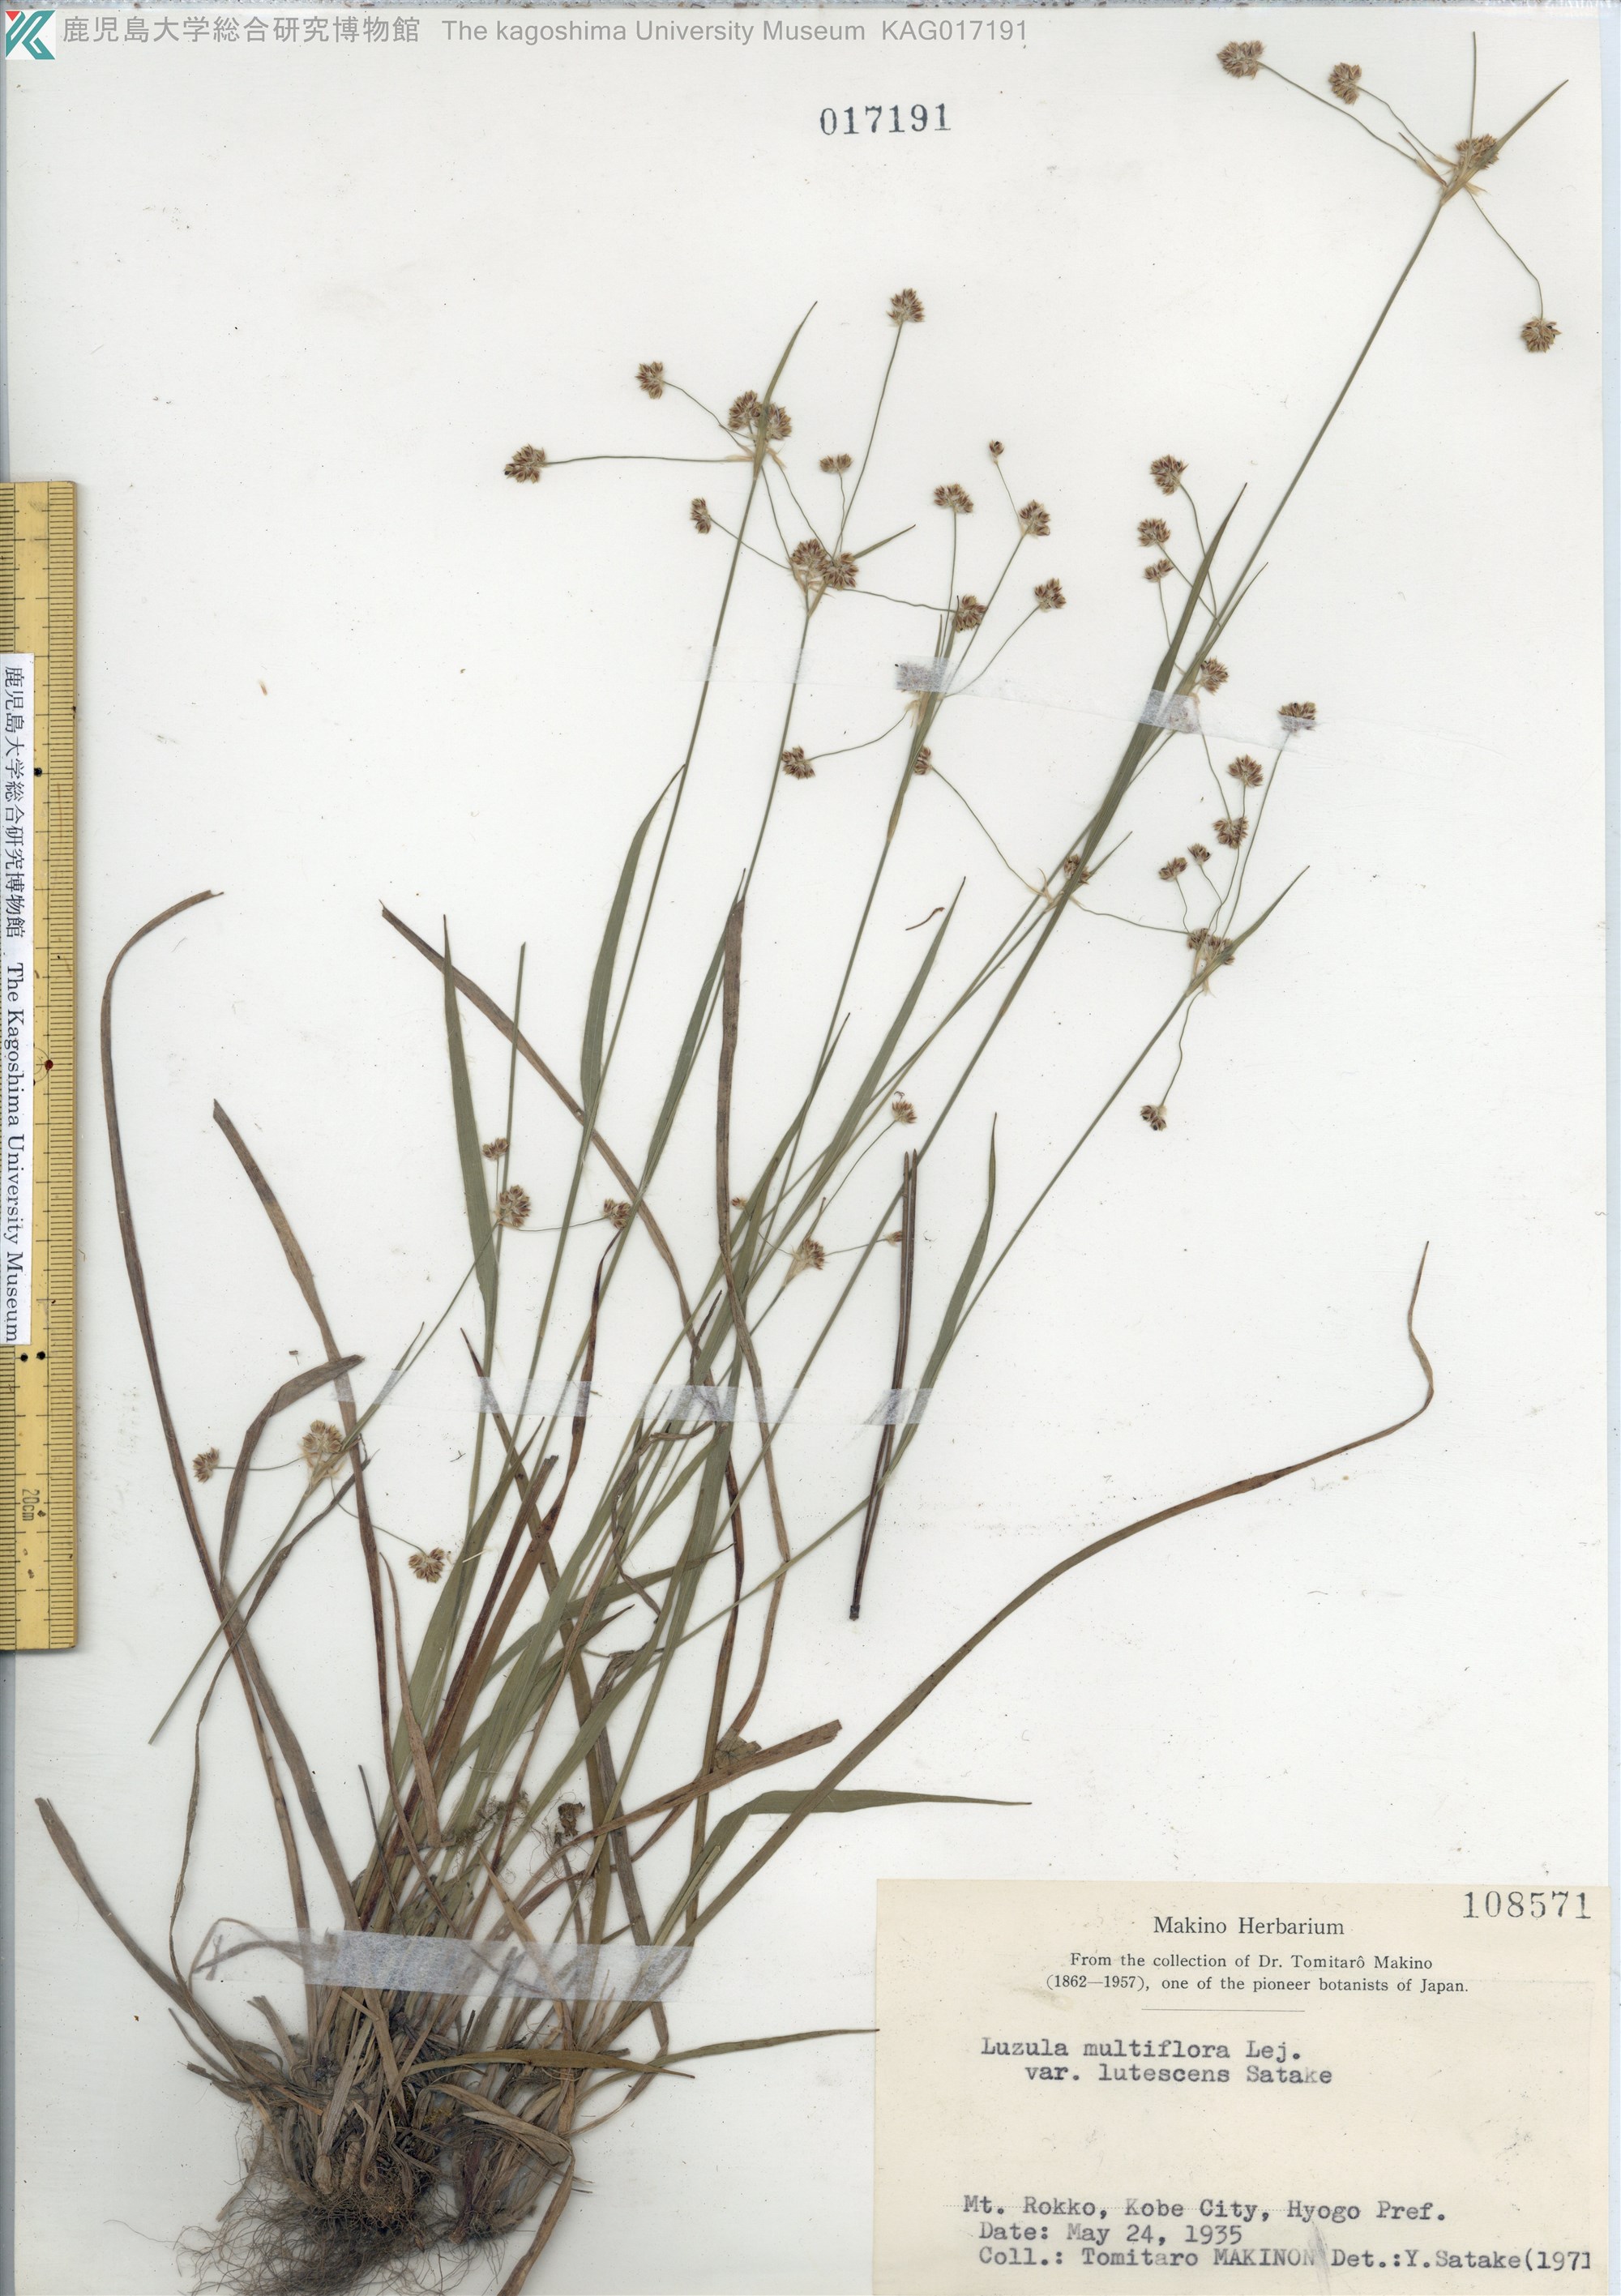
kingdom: Plantae
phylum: Tracheophyta
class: Liliopsida
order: Poales
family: Juncaceae
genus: Luzula
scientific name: Luzula multiflora
